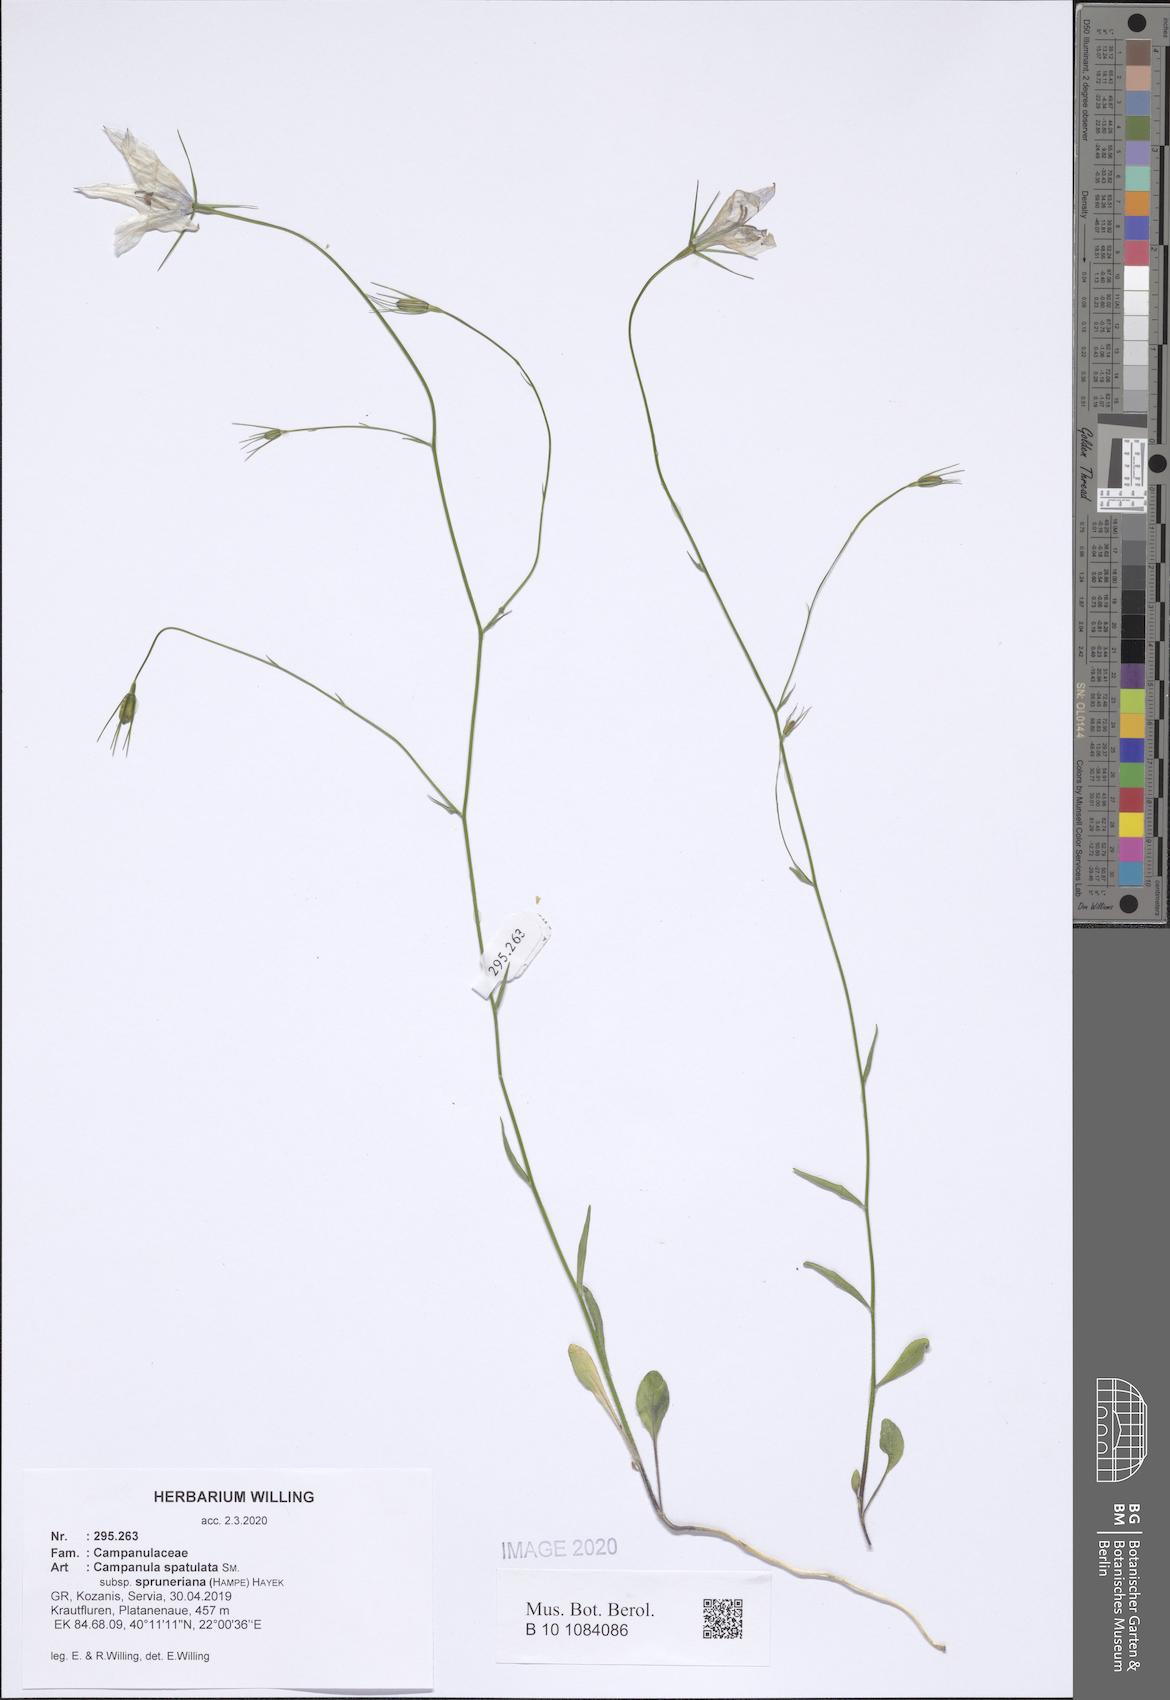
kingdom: Plantae
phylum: Tracheophyta
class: Magnoliopsida
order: Asterales
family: Campanulaceae
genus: Campanula
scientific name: Campanula spatulata
